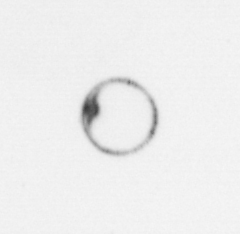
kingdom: Chromista
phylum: Myzozoa
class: Dinophyceae
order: Noctilucales
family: Noctilucaceae
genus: Noctiluca
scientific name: Noctiluca scintillans
